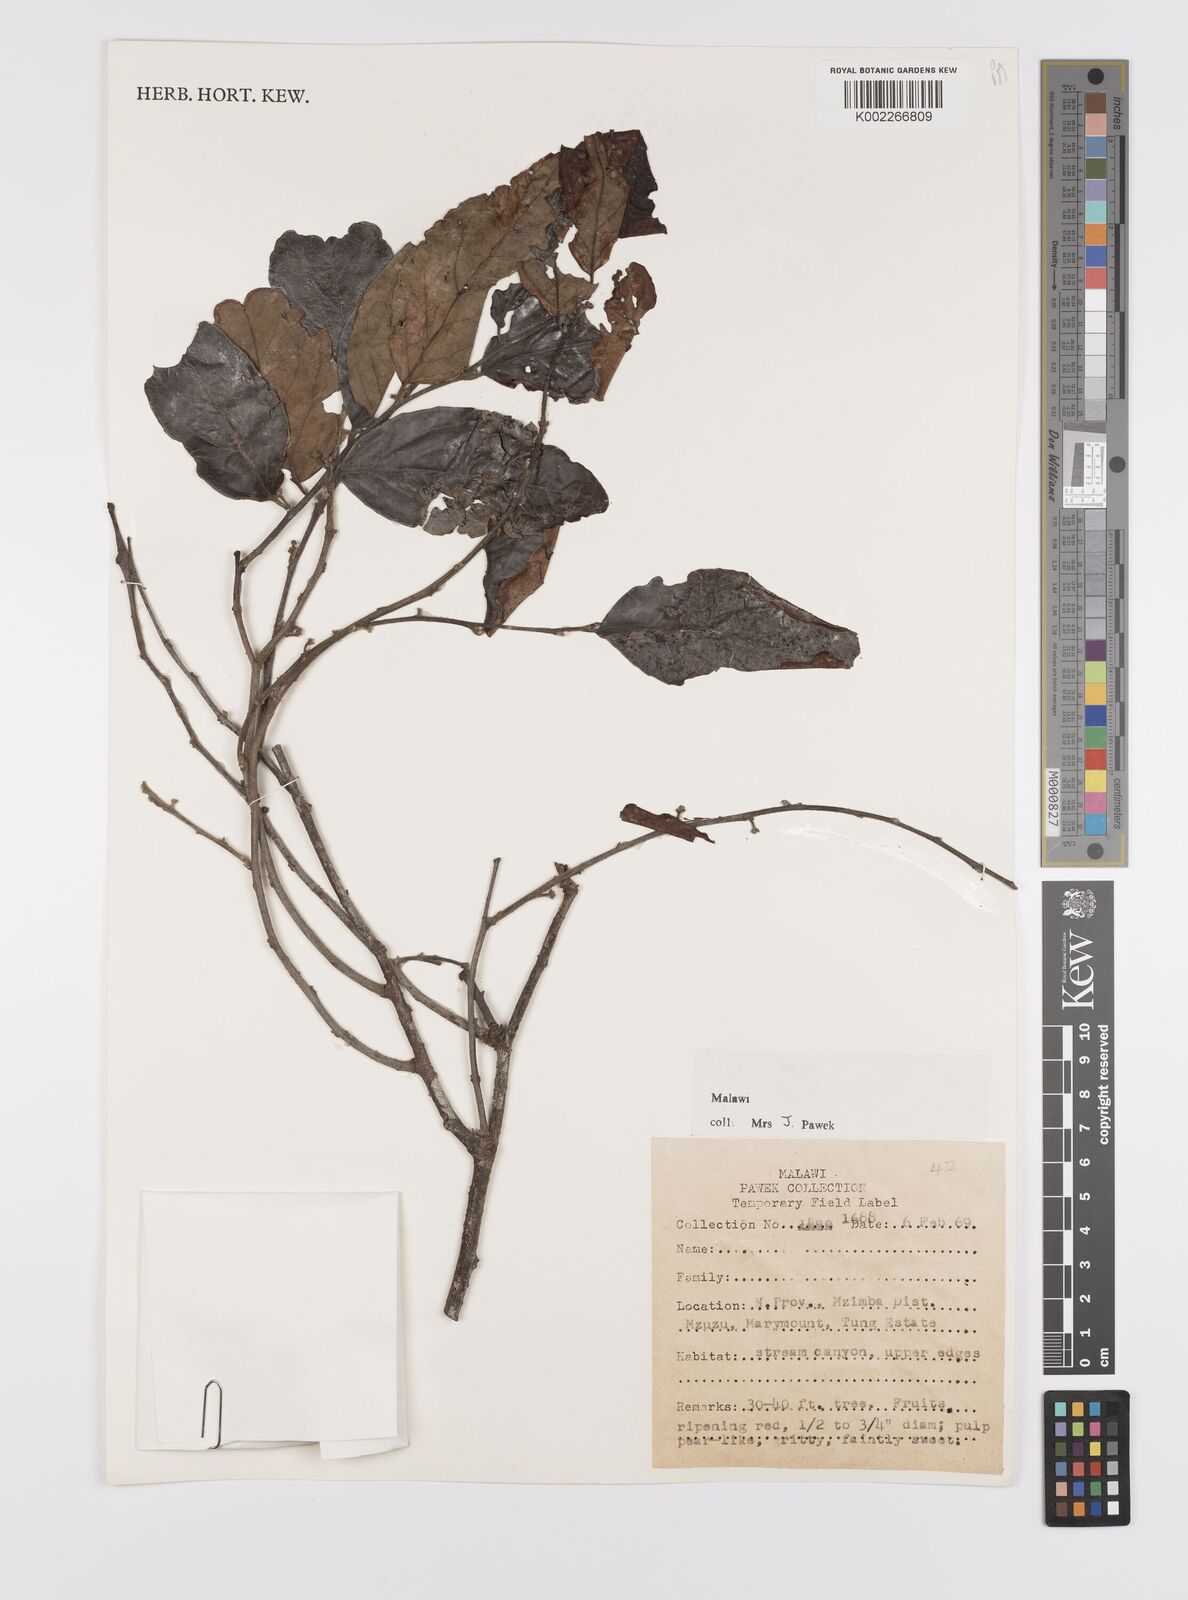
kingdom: Plantae
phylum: Tracheophyta
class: Magnoliopsida
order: Celastrales
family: Celastraceae
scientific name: Celastraceae
